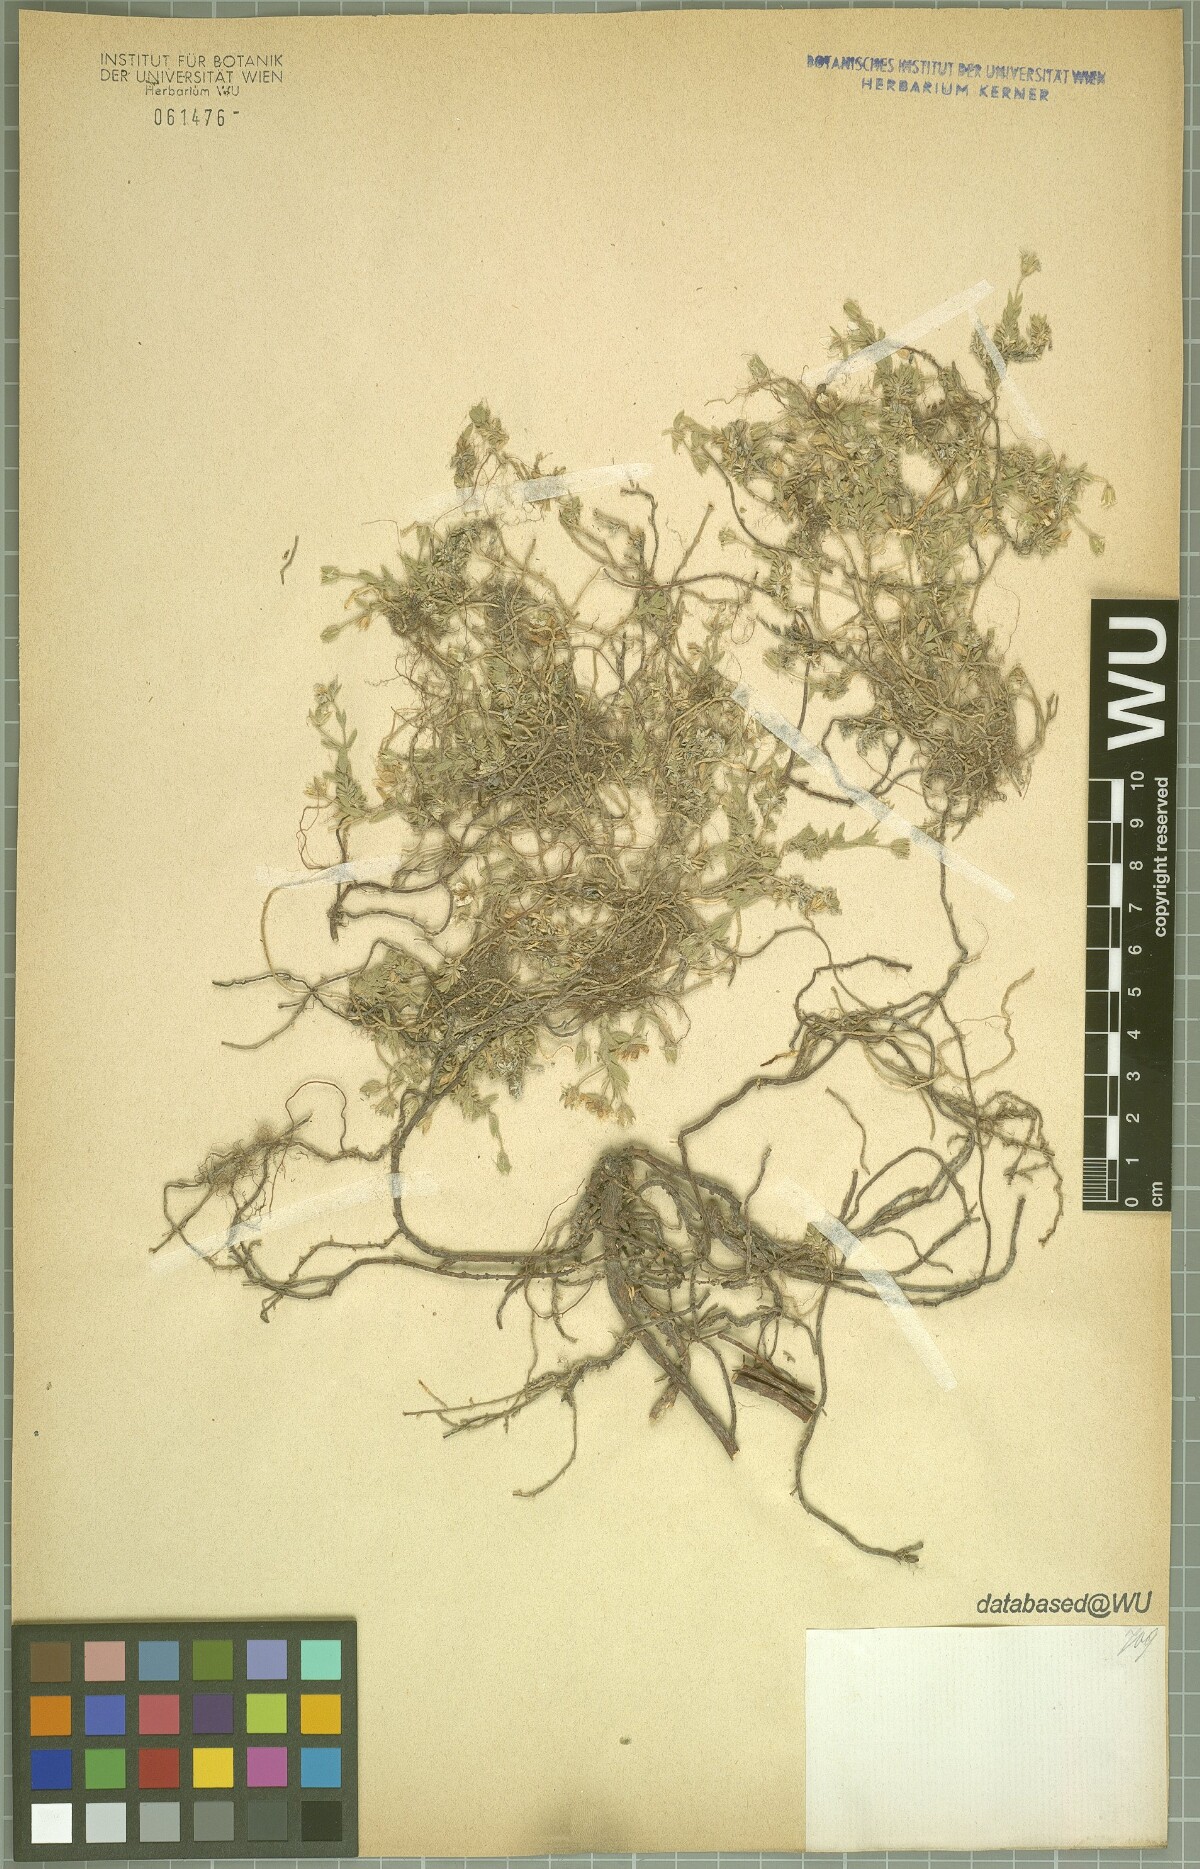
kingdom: Plantae
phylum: Tracheophyta
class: Magnoliopsida
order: Caryophyllales
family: Caryophyllaceae
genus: Arenaria
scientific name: Arenaria huteri
